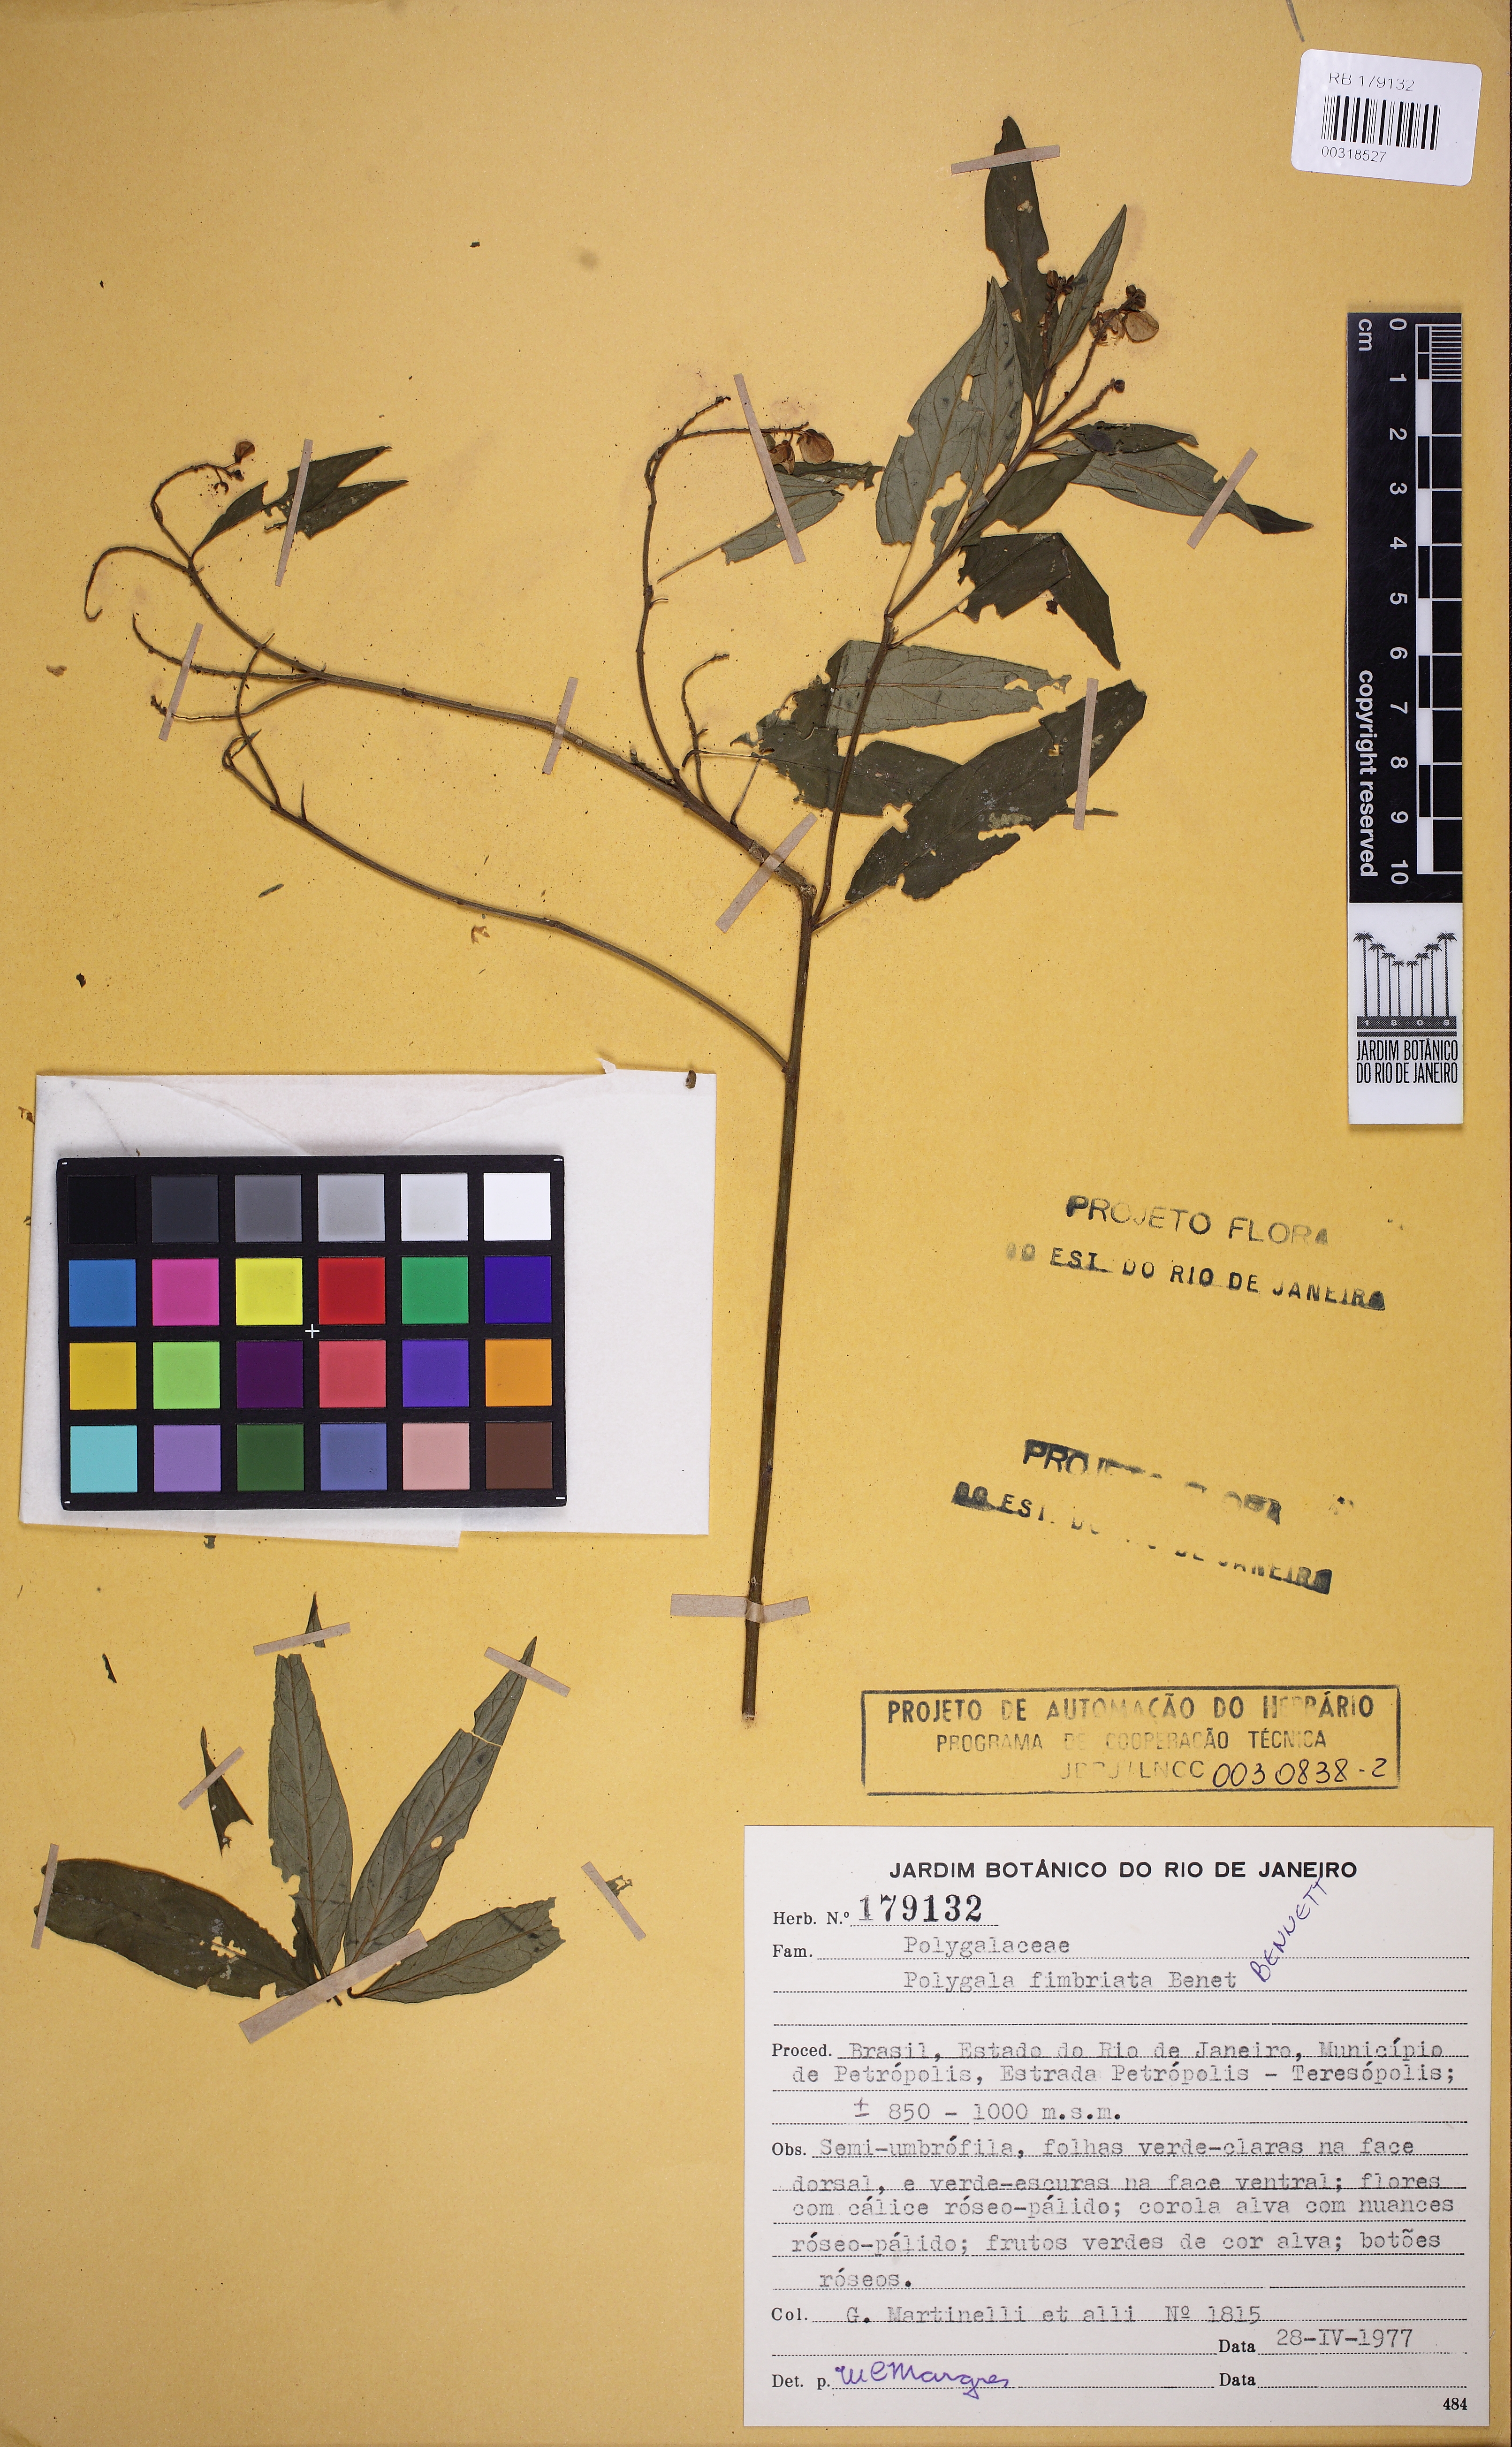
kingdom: Plantae
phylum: Tracheophyta
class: Magnoliopsida
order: Fabales
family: Polygalaceae
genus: Asemeia
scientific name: Asemeia acuminata
